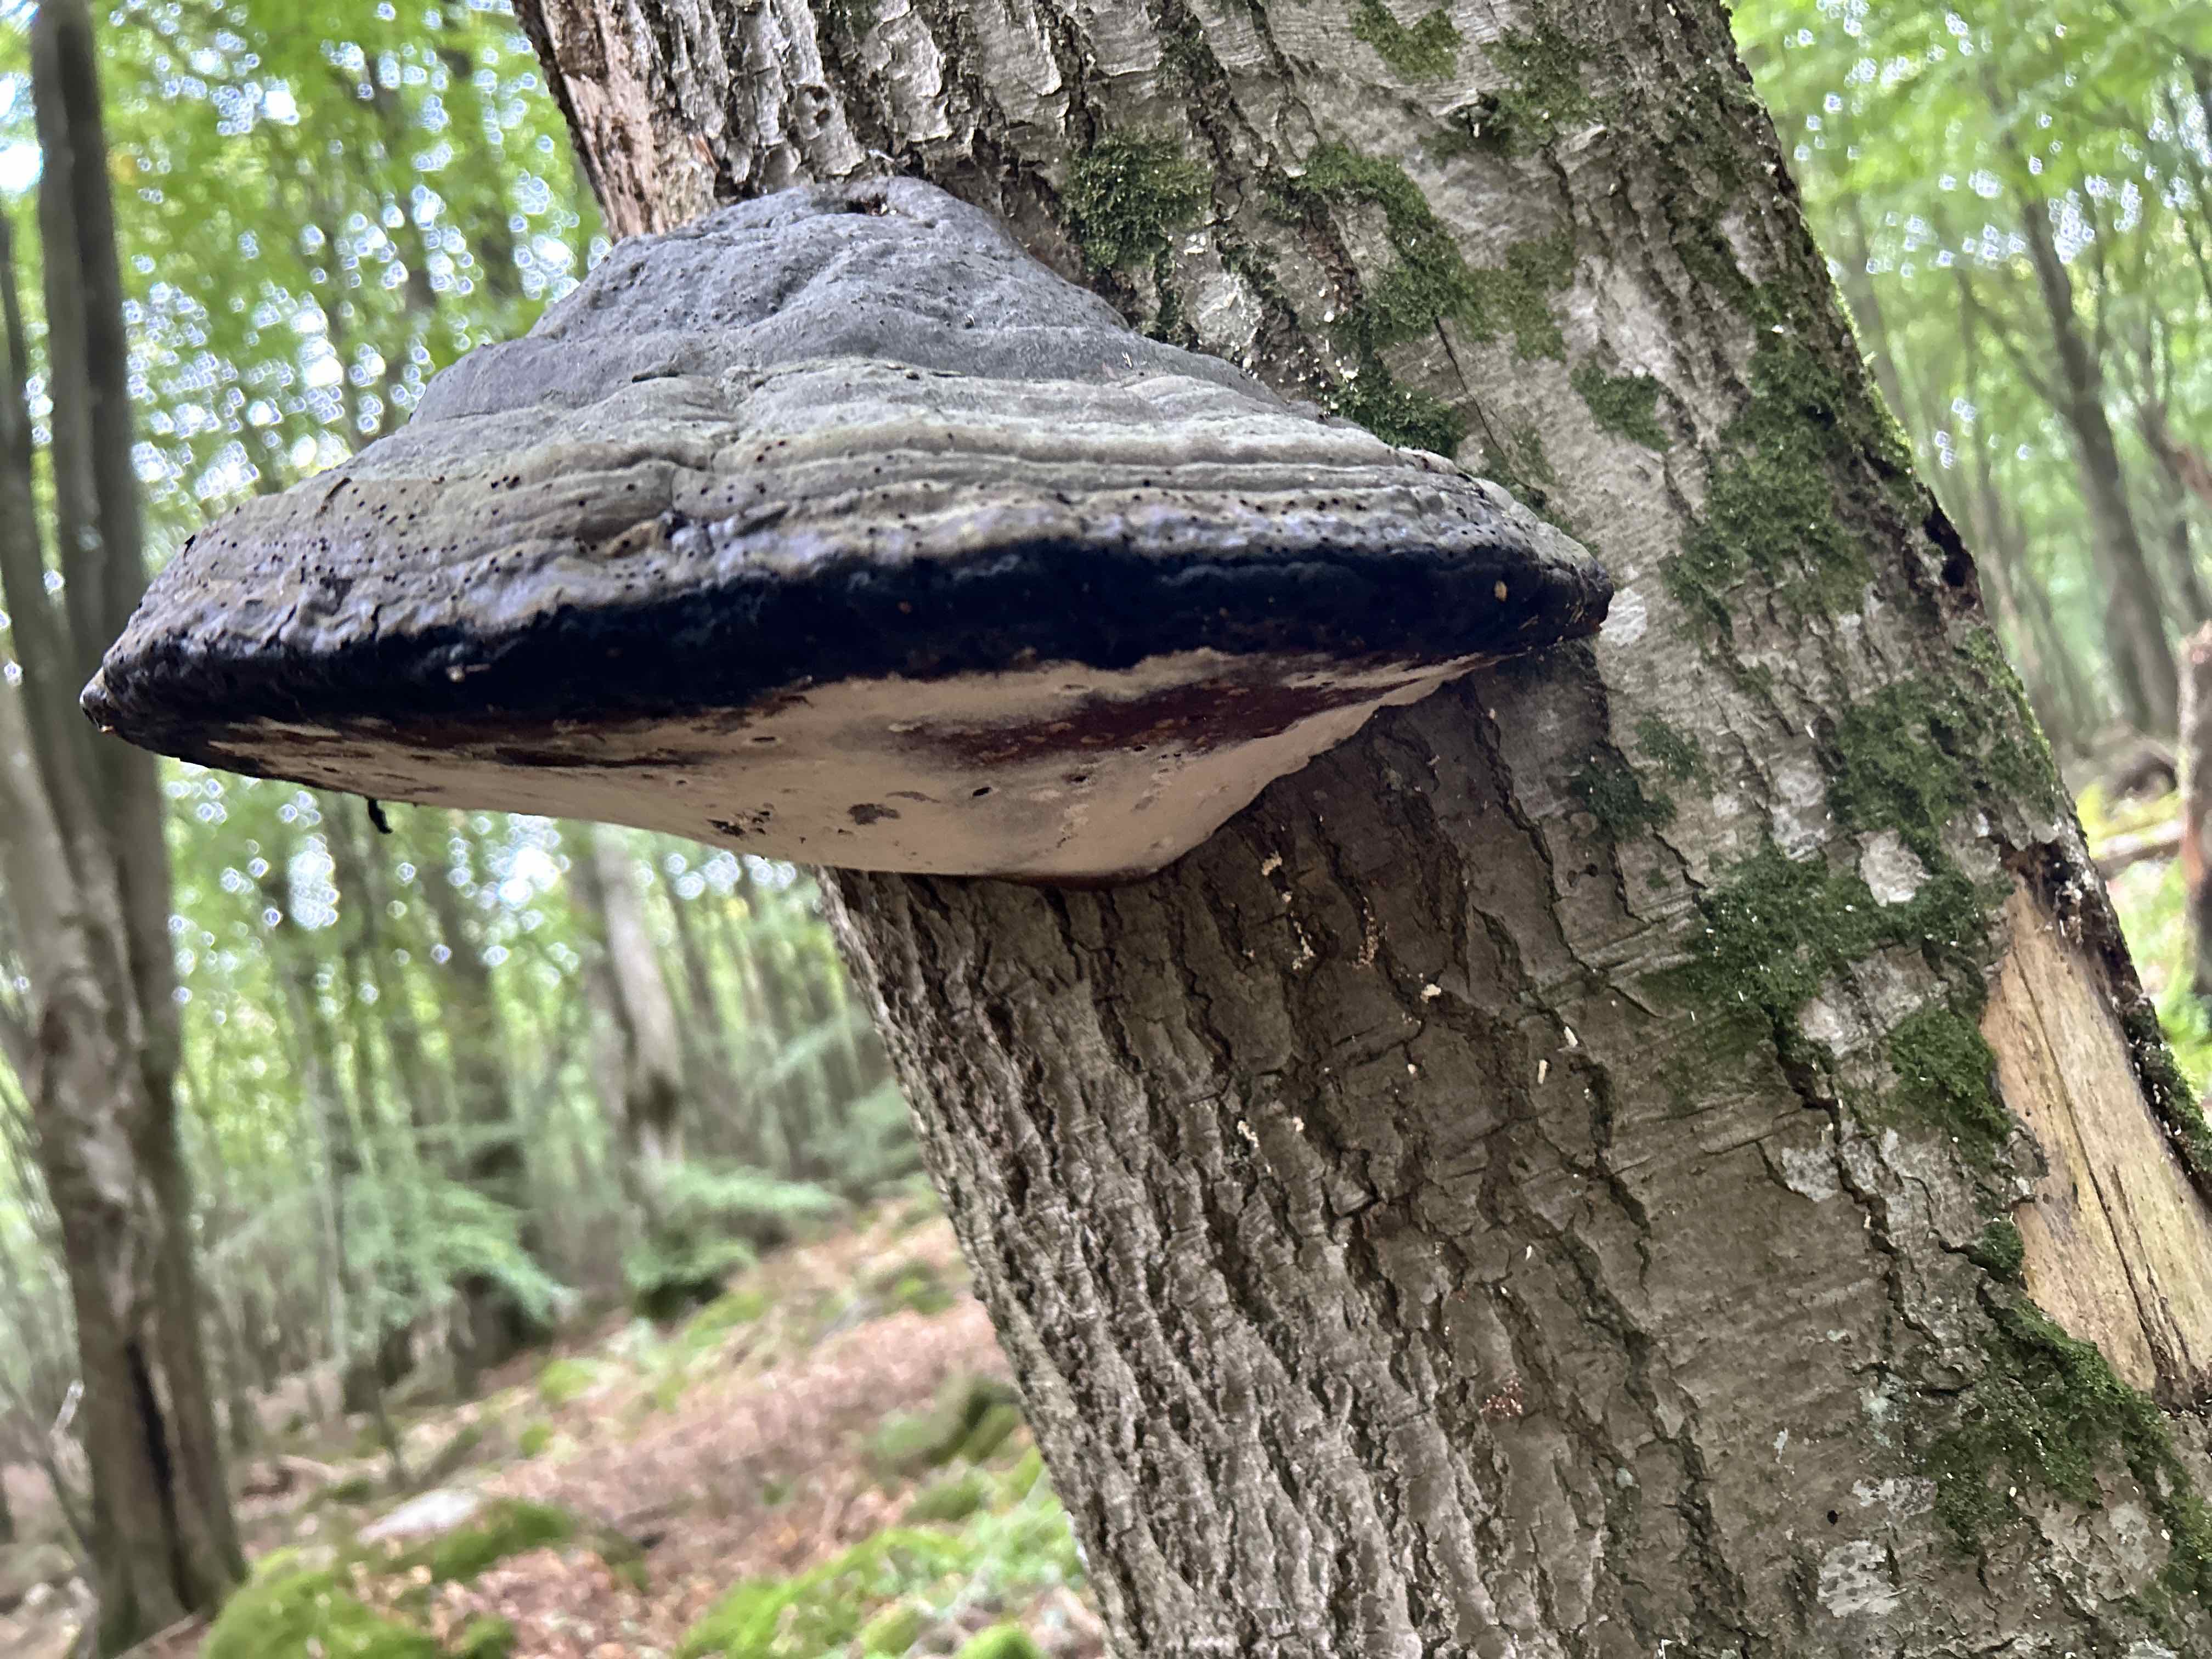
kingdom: Fungi
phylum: Basidiomycota
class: Agaricomycetes
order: Polyporales
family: Polyporaceae
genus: Fomes
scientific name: Fomes fomentarius
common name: tøndersvamp
